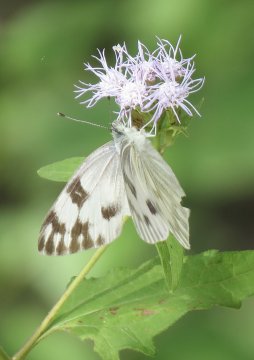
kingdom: Animalia
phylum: Arthropoda
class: Insecta
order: Lepidoptera
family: Pieridae
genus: Pontia
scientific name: Pontia protodice
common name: Checkered White
